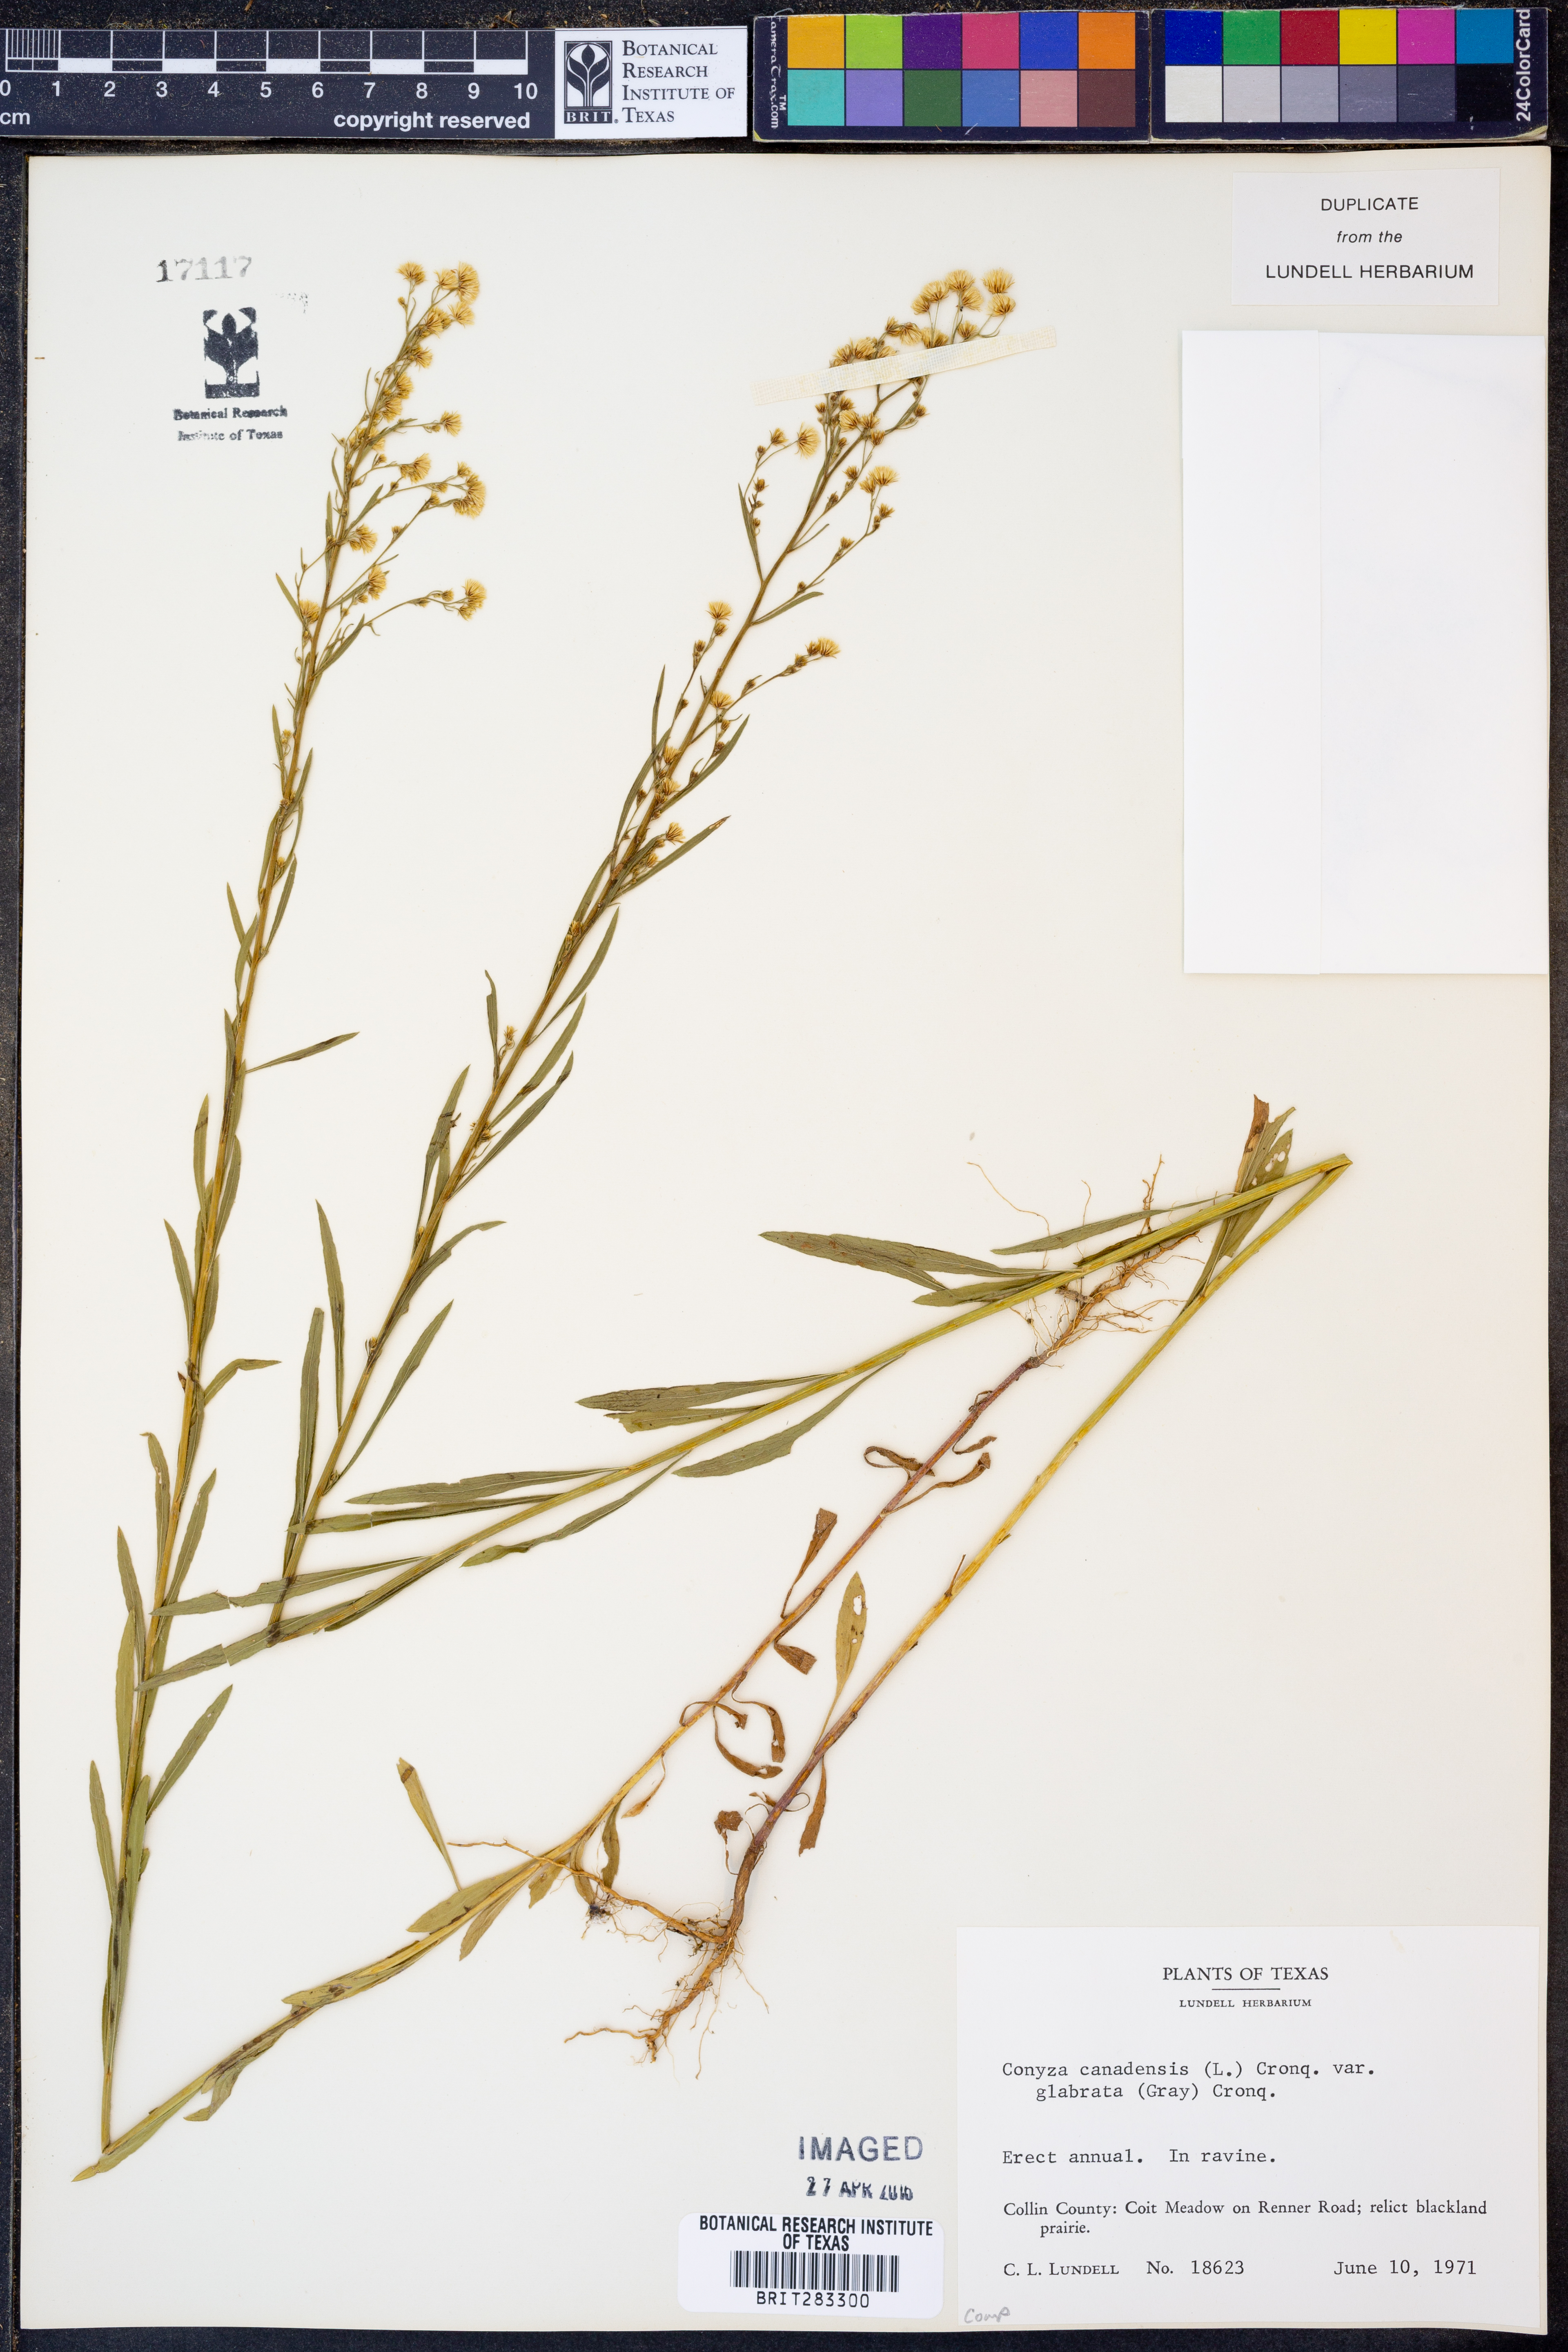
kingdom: Plantae
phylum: Tracheophyta
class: Magnoliopsida
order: Asterales
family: Asteraceae
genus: Erigeron
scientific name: Erigeron canadensis
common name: Canadian fleabane
